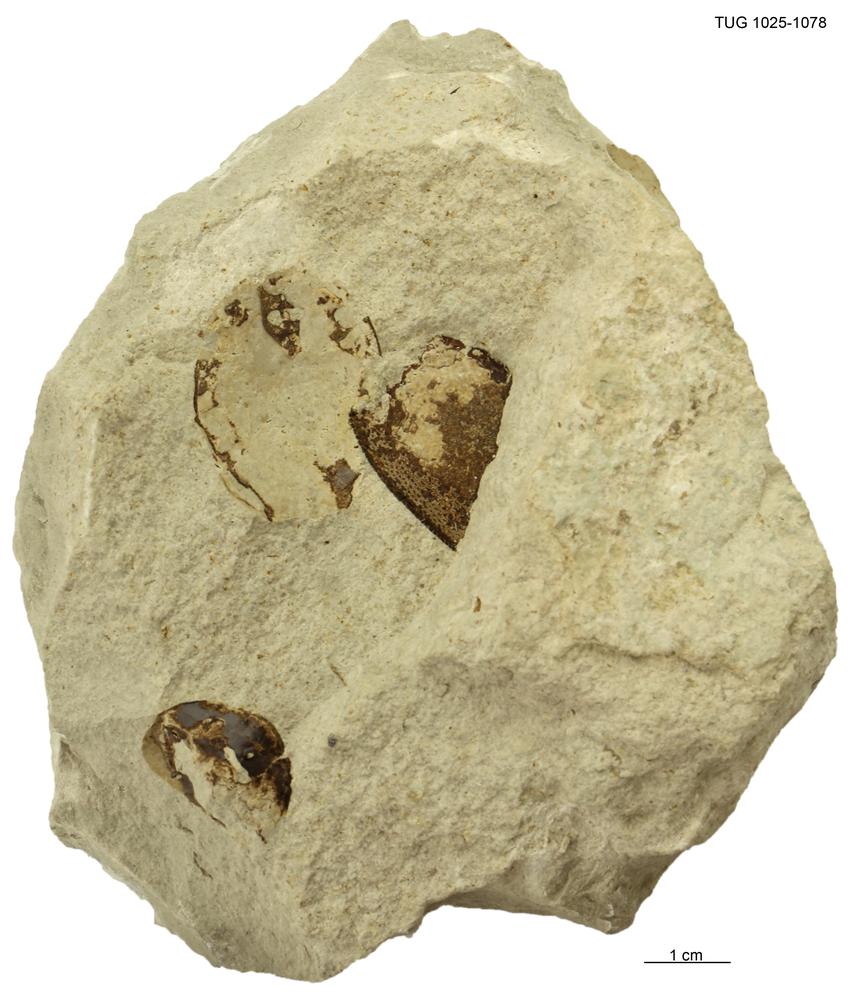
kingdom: Animalia
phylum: Chordata
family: Tremataspididae
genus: Tremataspis
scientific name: Tremataspis
